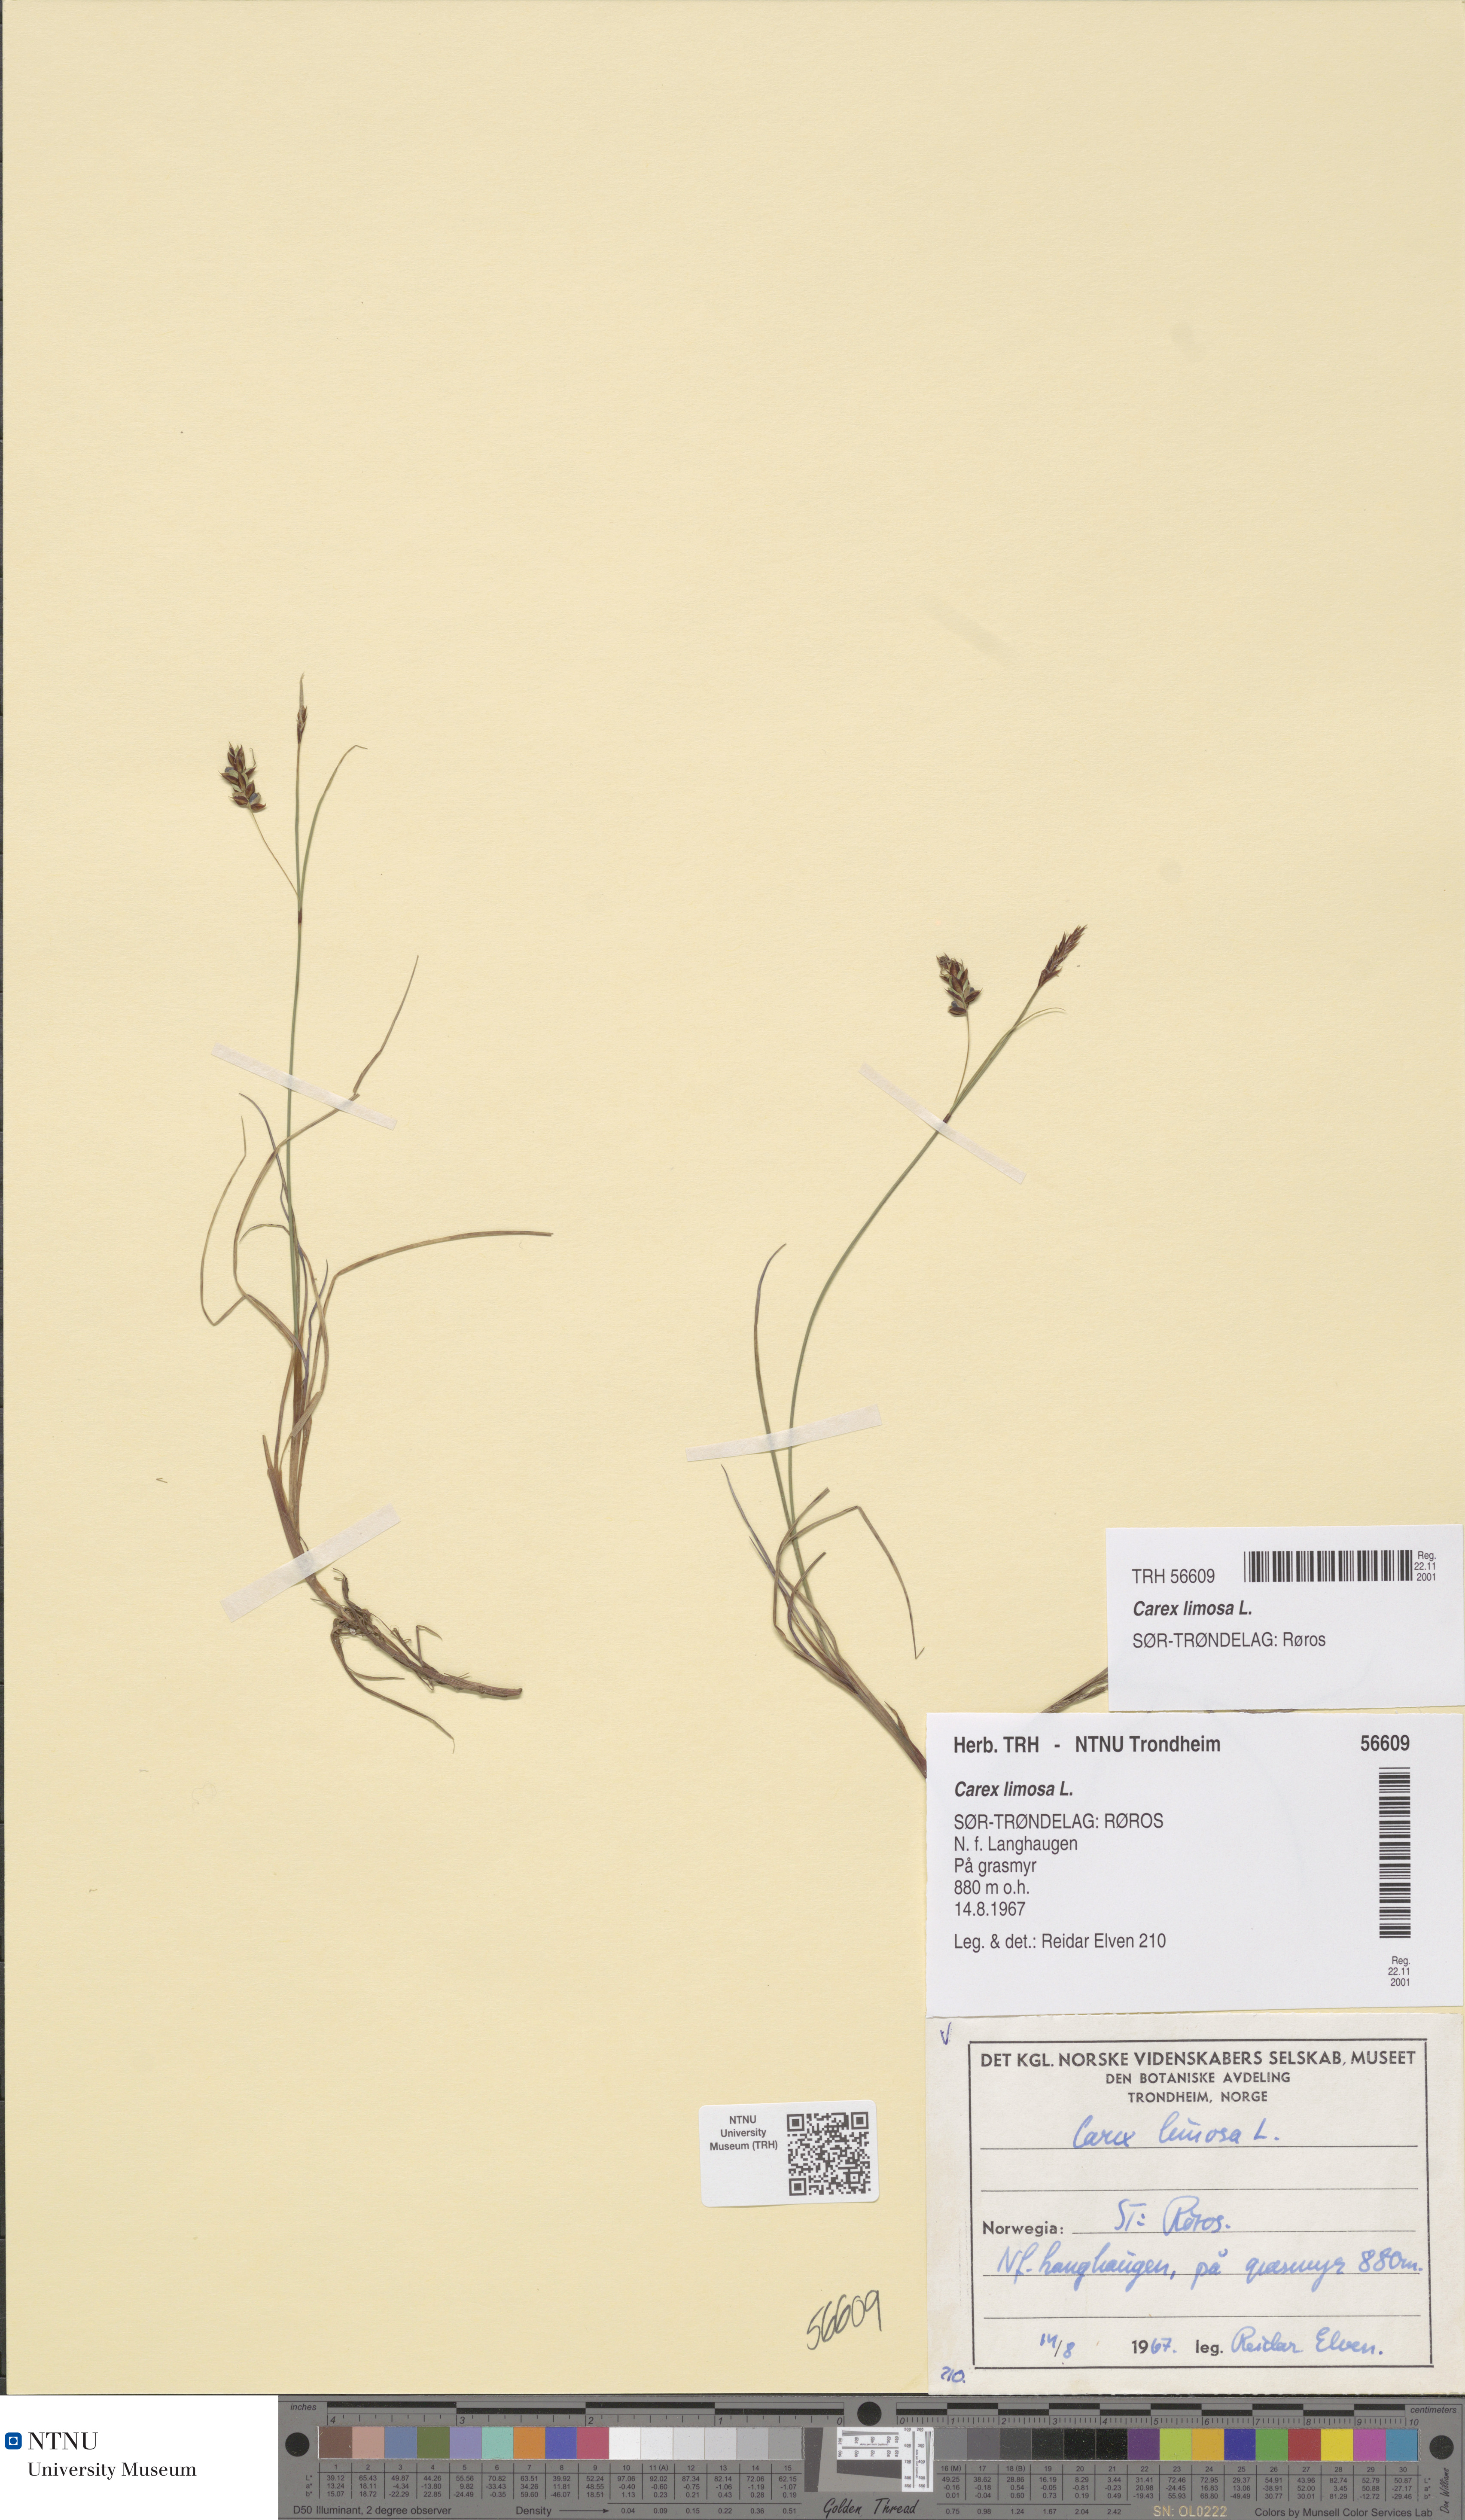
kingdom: Plantae
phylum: Tracheophyta
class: Liliopsida
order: Poales
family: Cyperaceae
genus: Carex
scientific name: Carex limosa
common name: Bog sedge
